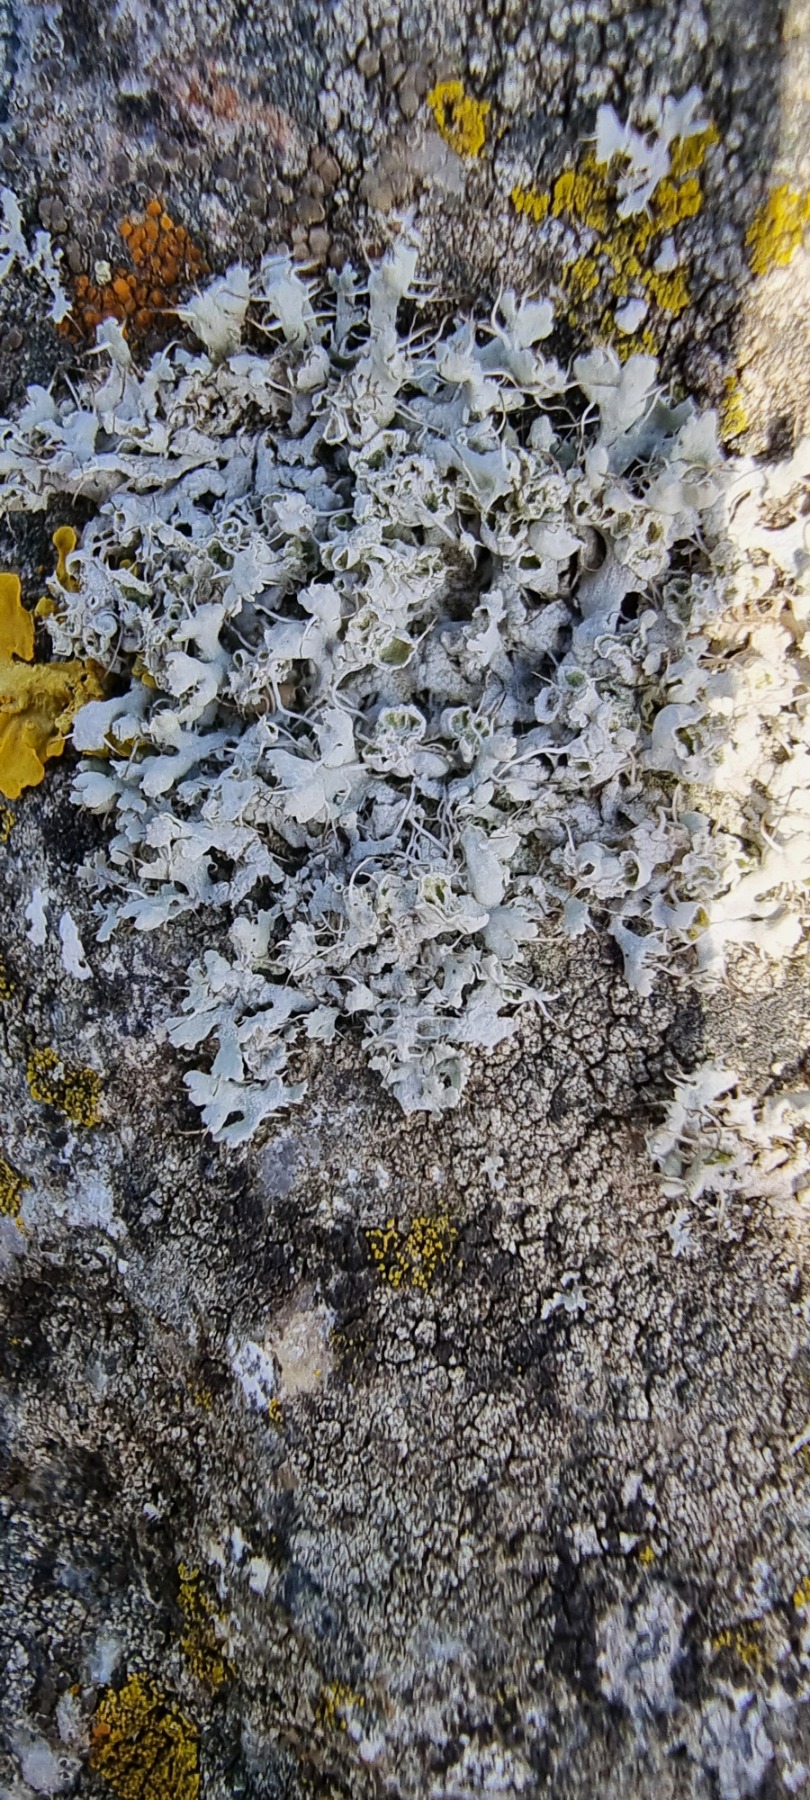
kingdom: Fungi
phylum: Ascomycota
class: Lecanoromycetes
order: Caliciales
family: Physciaceae
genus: Physcia
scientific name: Physcia adscendens
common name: Hætte-rosetlav
